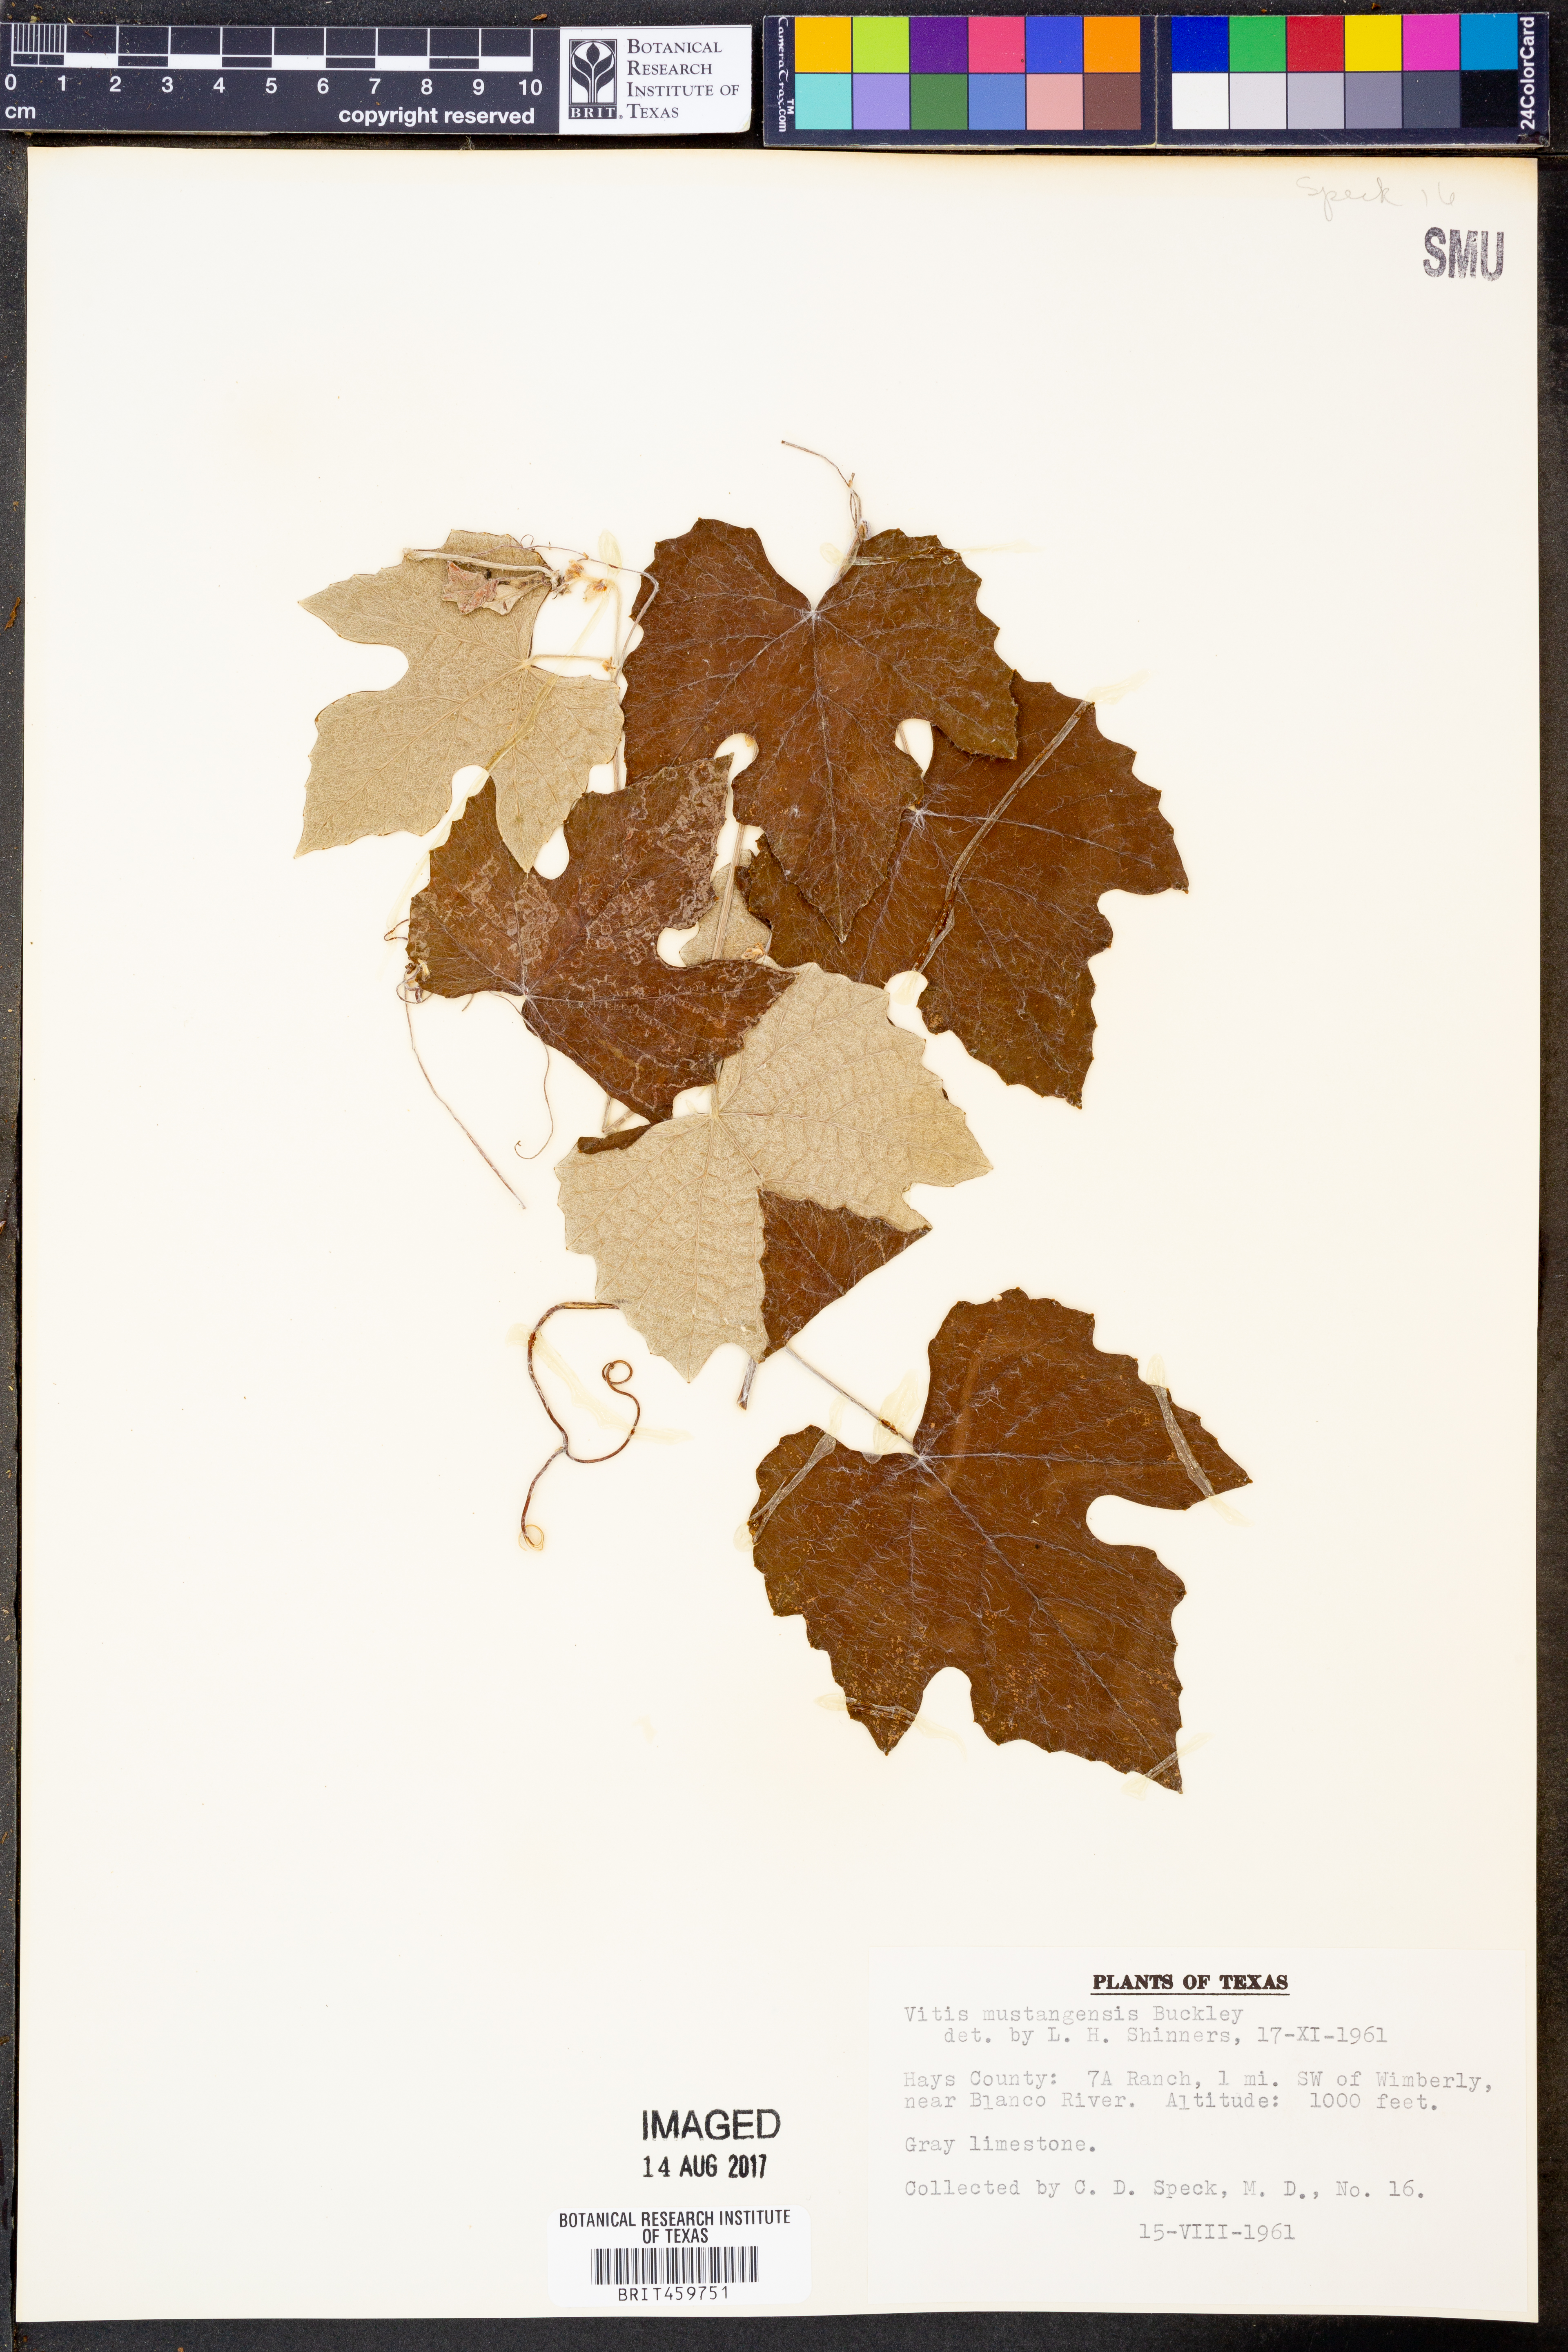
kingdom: Plantae
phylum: Tracheophyta
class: Magnoliopsida
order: Vitales
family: Vitaceae
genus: Vitis
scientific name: Vitis mustangensis
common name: Mustang grape
